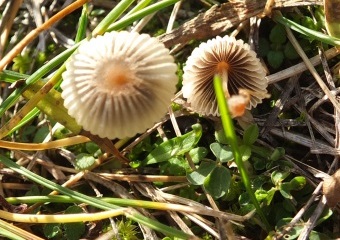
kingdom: Fungi
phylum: Basidiomycota
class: Agaricomycetes
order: Agaricales
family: Psathyrellaceae
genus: Parasola
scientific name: Parasola plicatilis
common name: plæne-hjulhat
